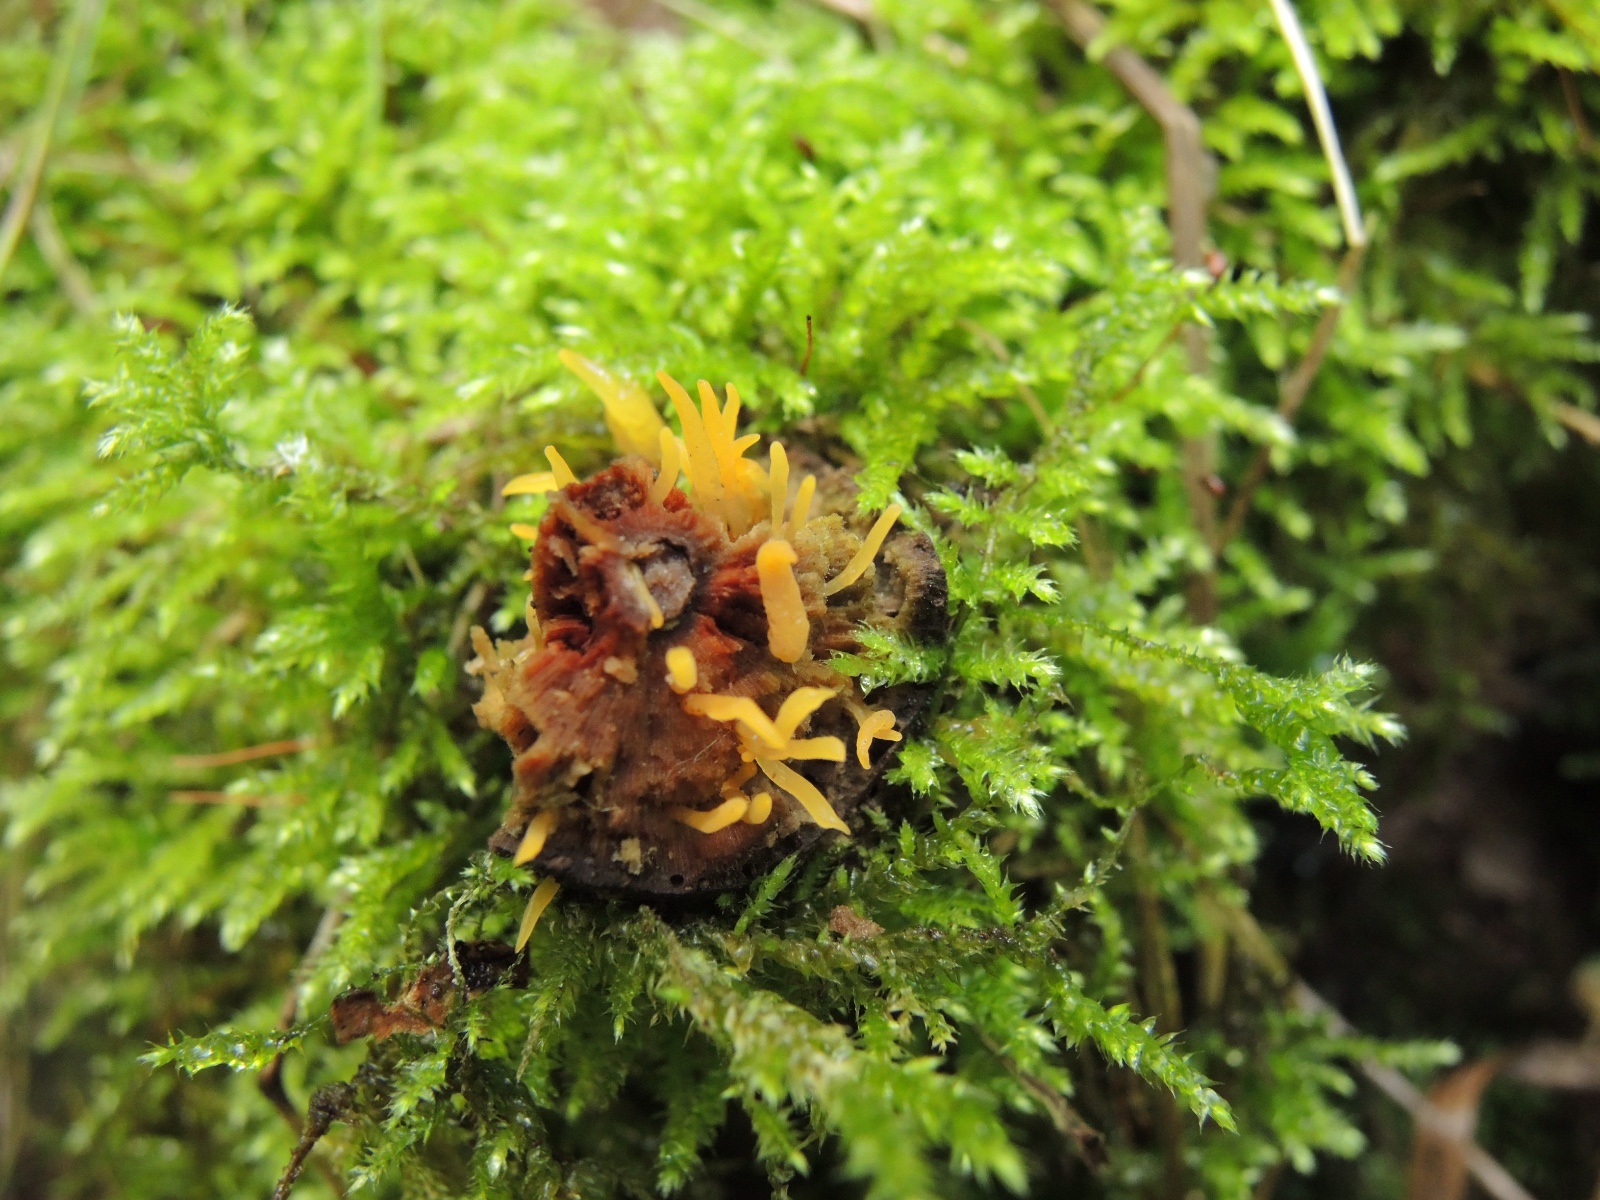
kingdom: Fungi
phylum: Basidiomycota
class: Dacrymycetes
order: Dacrymycetales
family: Dacrymycetaceae
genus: Calocera
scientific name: Calocera cornea
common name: liden guldgaffel
